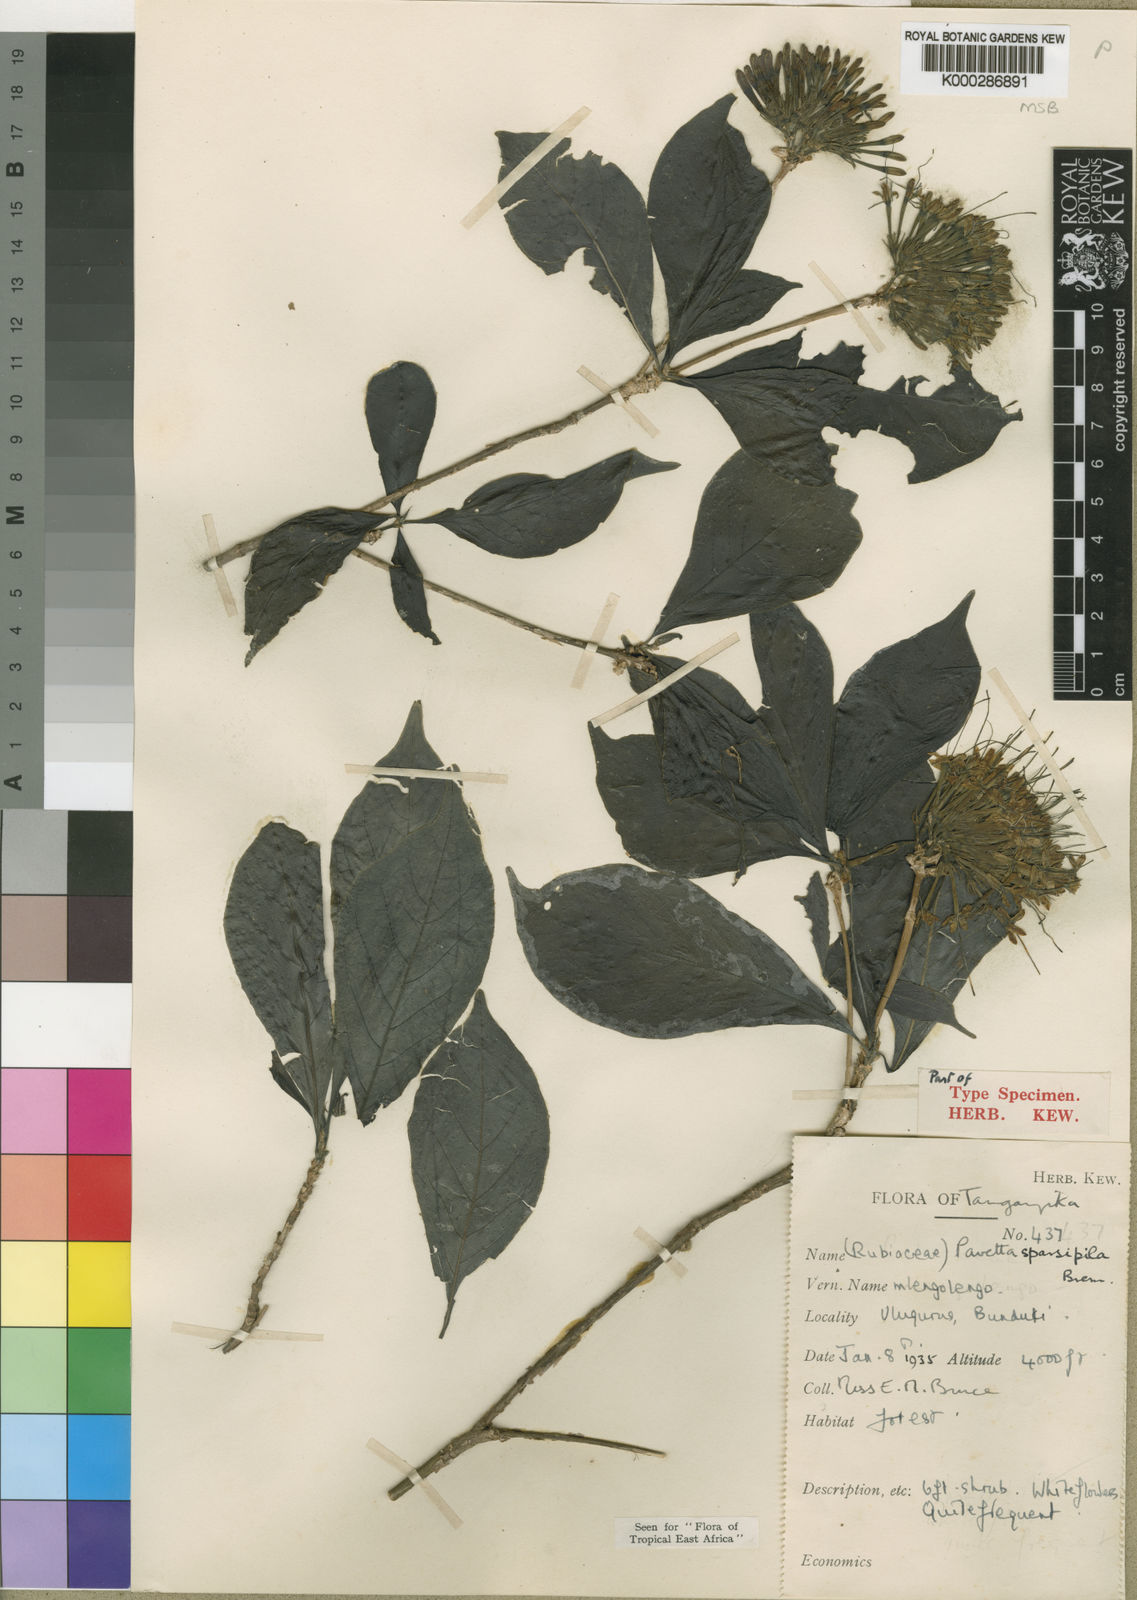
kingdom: Plantae
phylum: Tracheophyta
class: Magnoliopsida
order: Gentianales
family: Rubiaceae
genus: Pavetta
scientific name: Pavetta sparsipila
